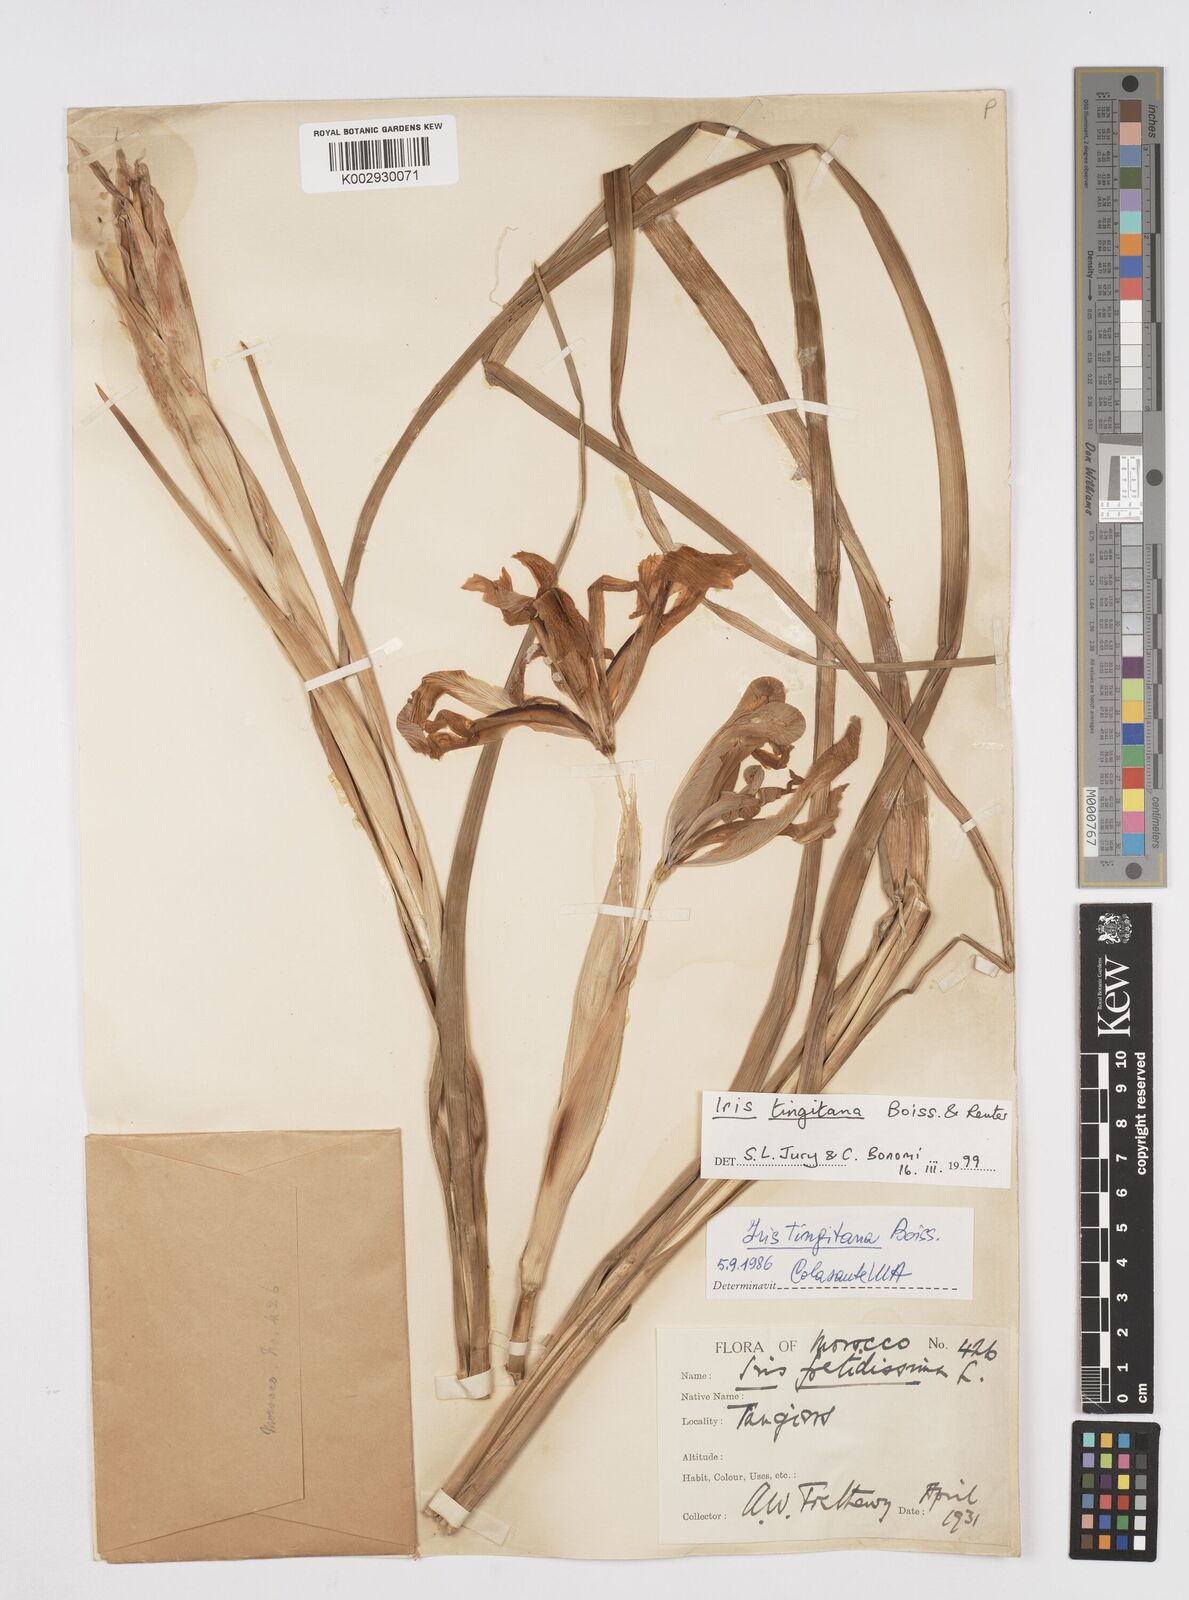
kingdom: Plantae
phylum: Tracheophyta
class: Liliopsida
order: Asparagales
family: Iridaceae
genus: Iris
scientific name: Iris tingitana
